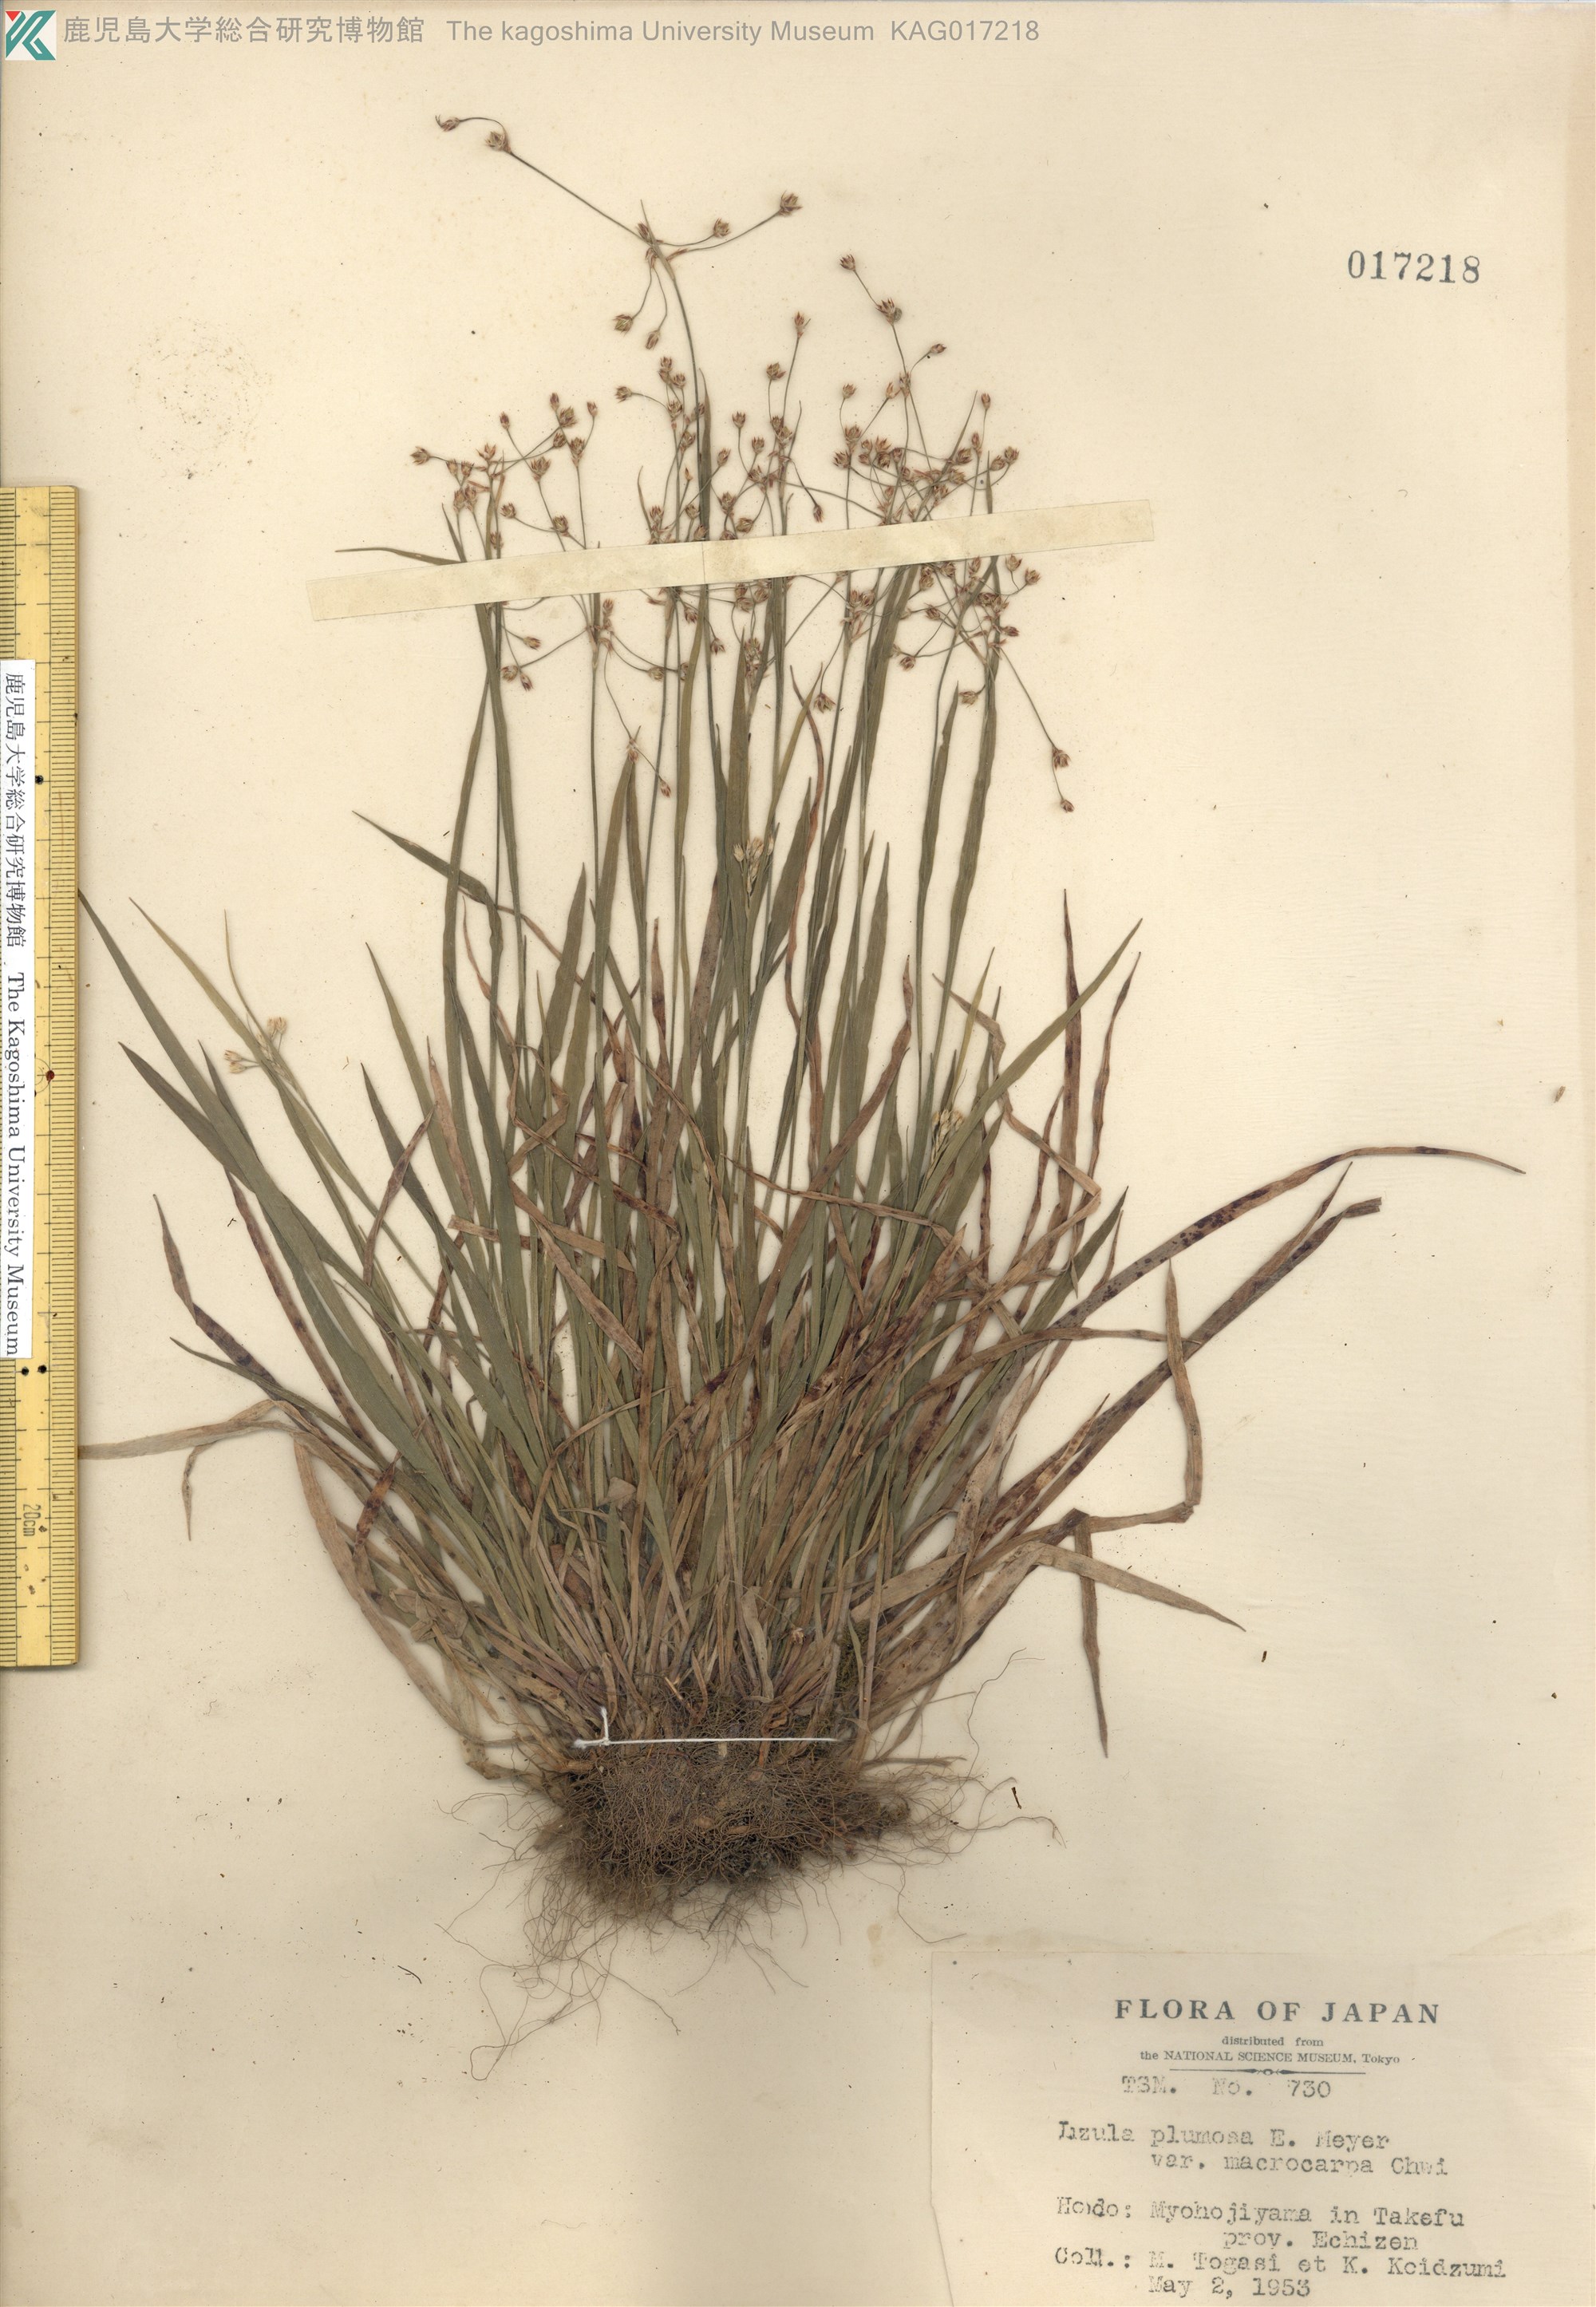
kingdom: Plantae
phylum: Tracheophyta
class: Liliopsida
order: Poales
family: Juncaceae
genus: Luzula
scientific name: Luzula plumosa
